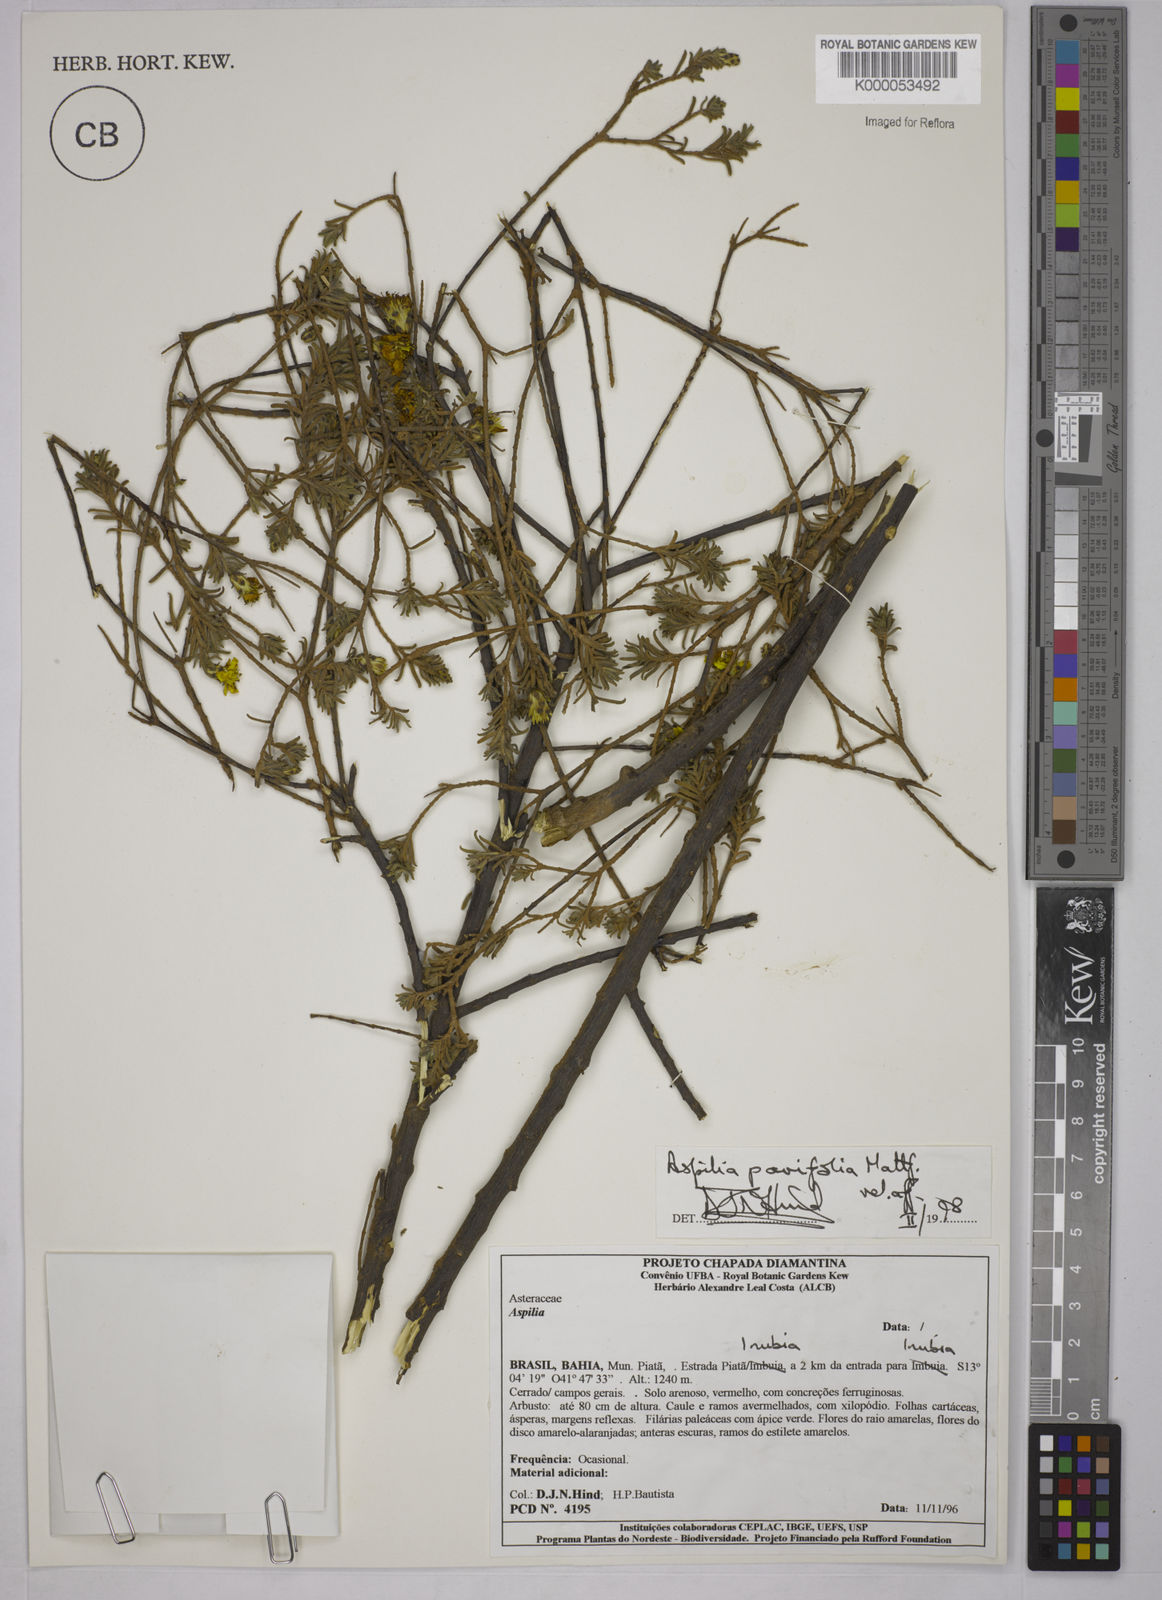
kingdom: Plantae
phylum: Tracheophyta
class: Magnoliopsida
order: Asterales
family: Asteraceae
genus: Aspilia
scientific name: Aspilia foliosa
